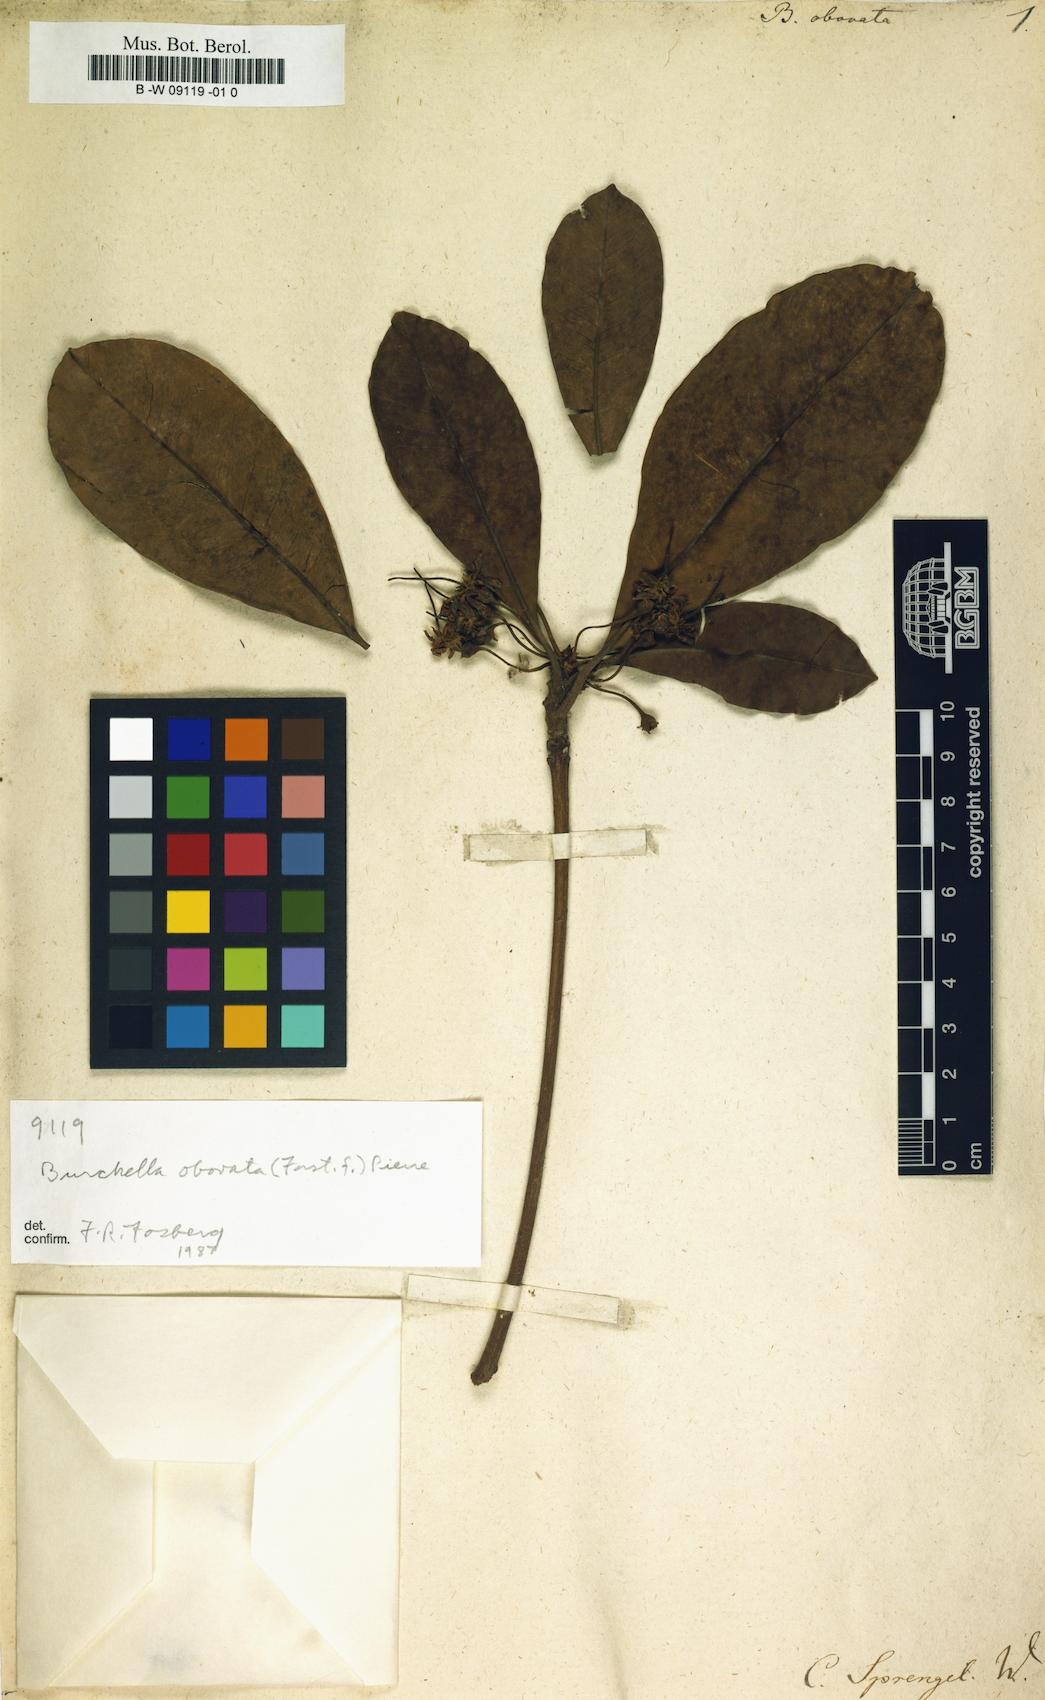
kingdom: Plantae
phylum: Tracheophyta
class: Magnoliopsida
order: Ericales
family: Sapotaceae
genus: Burckella
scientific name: Burckella obovata
